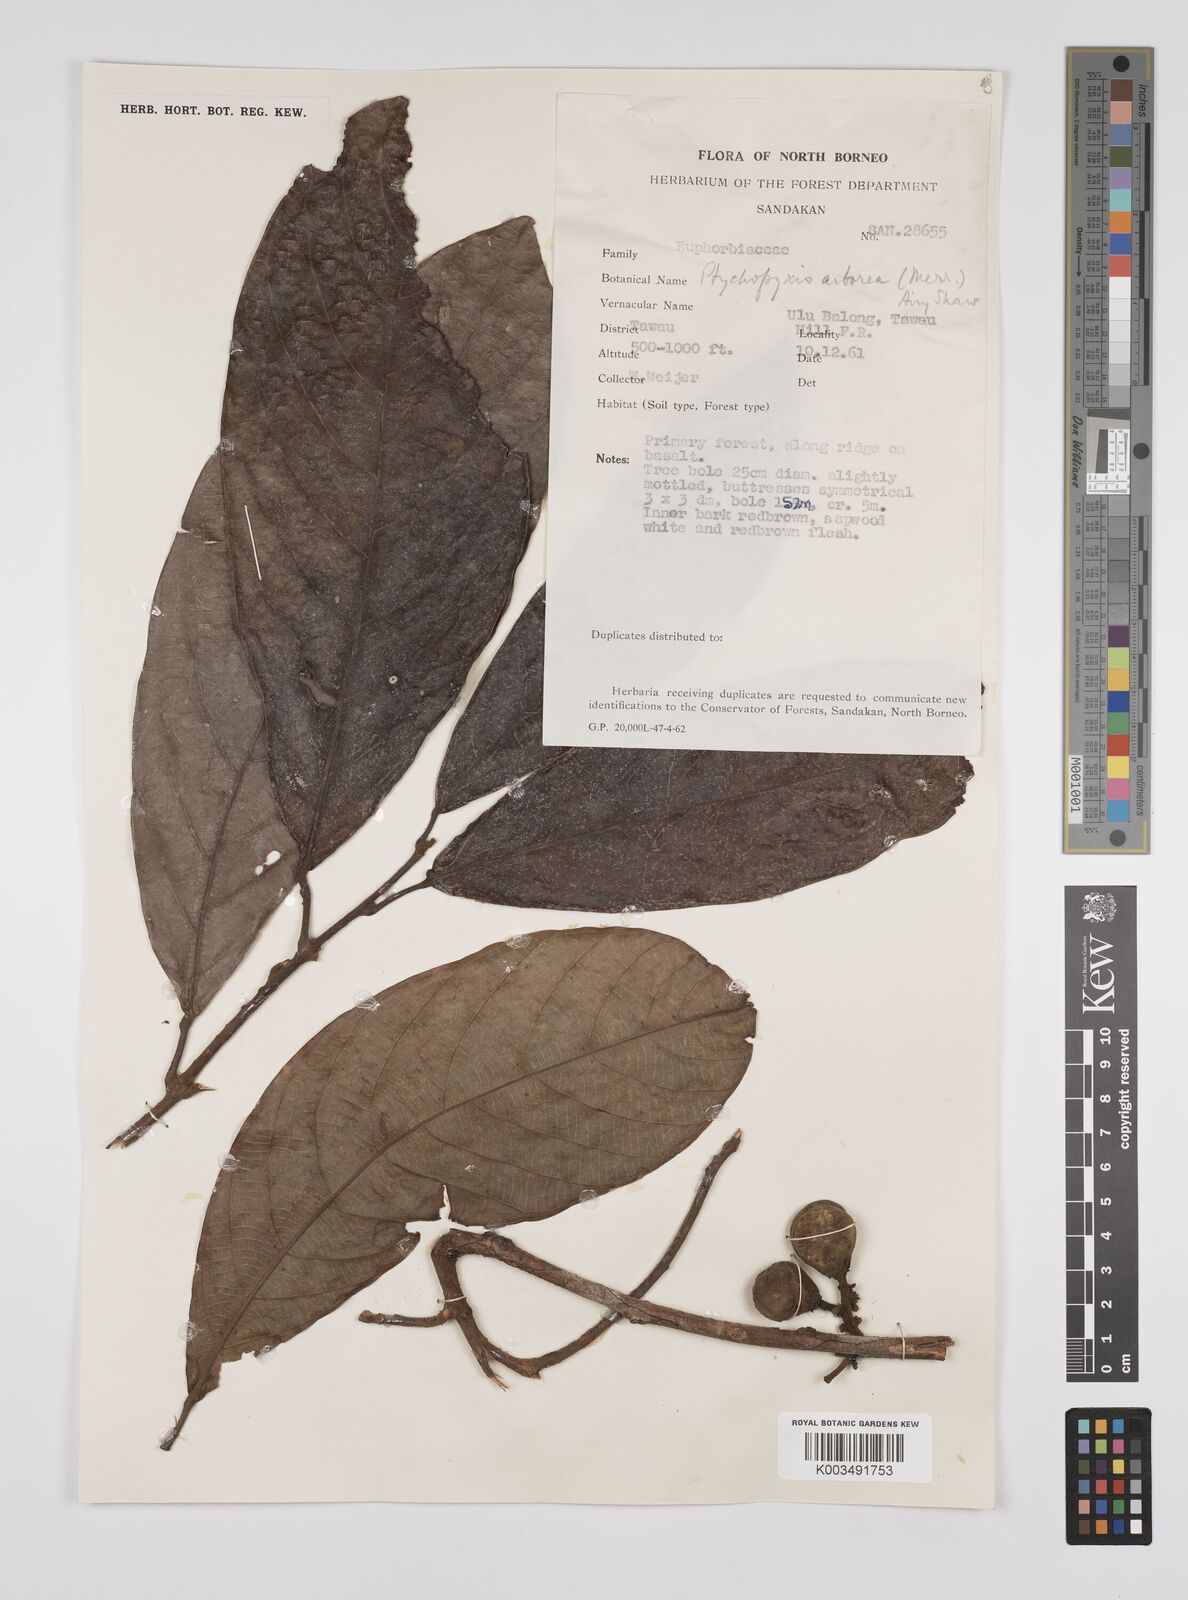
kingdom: Plantae
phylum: Tracheophyta
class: Magnoliopsida
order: Malpighiales
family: Euphorbiaceae
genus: Ptychopyxis
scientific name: Ptychopyxis arborea
